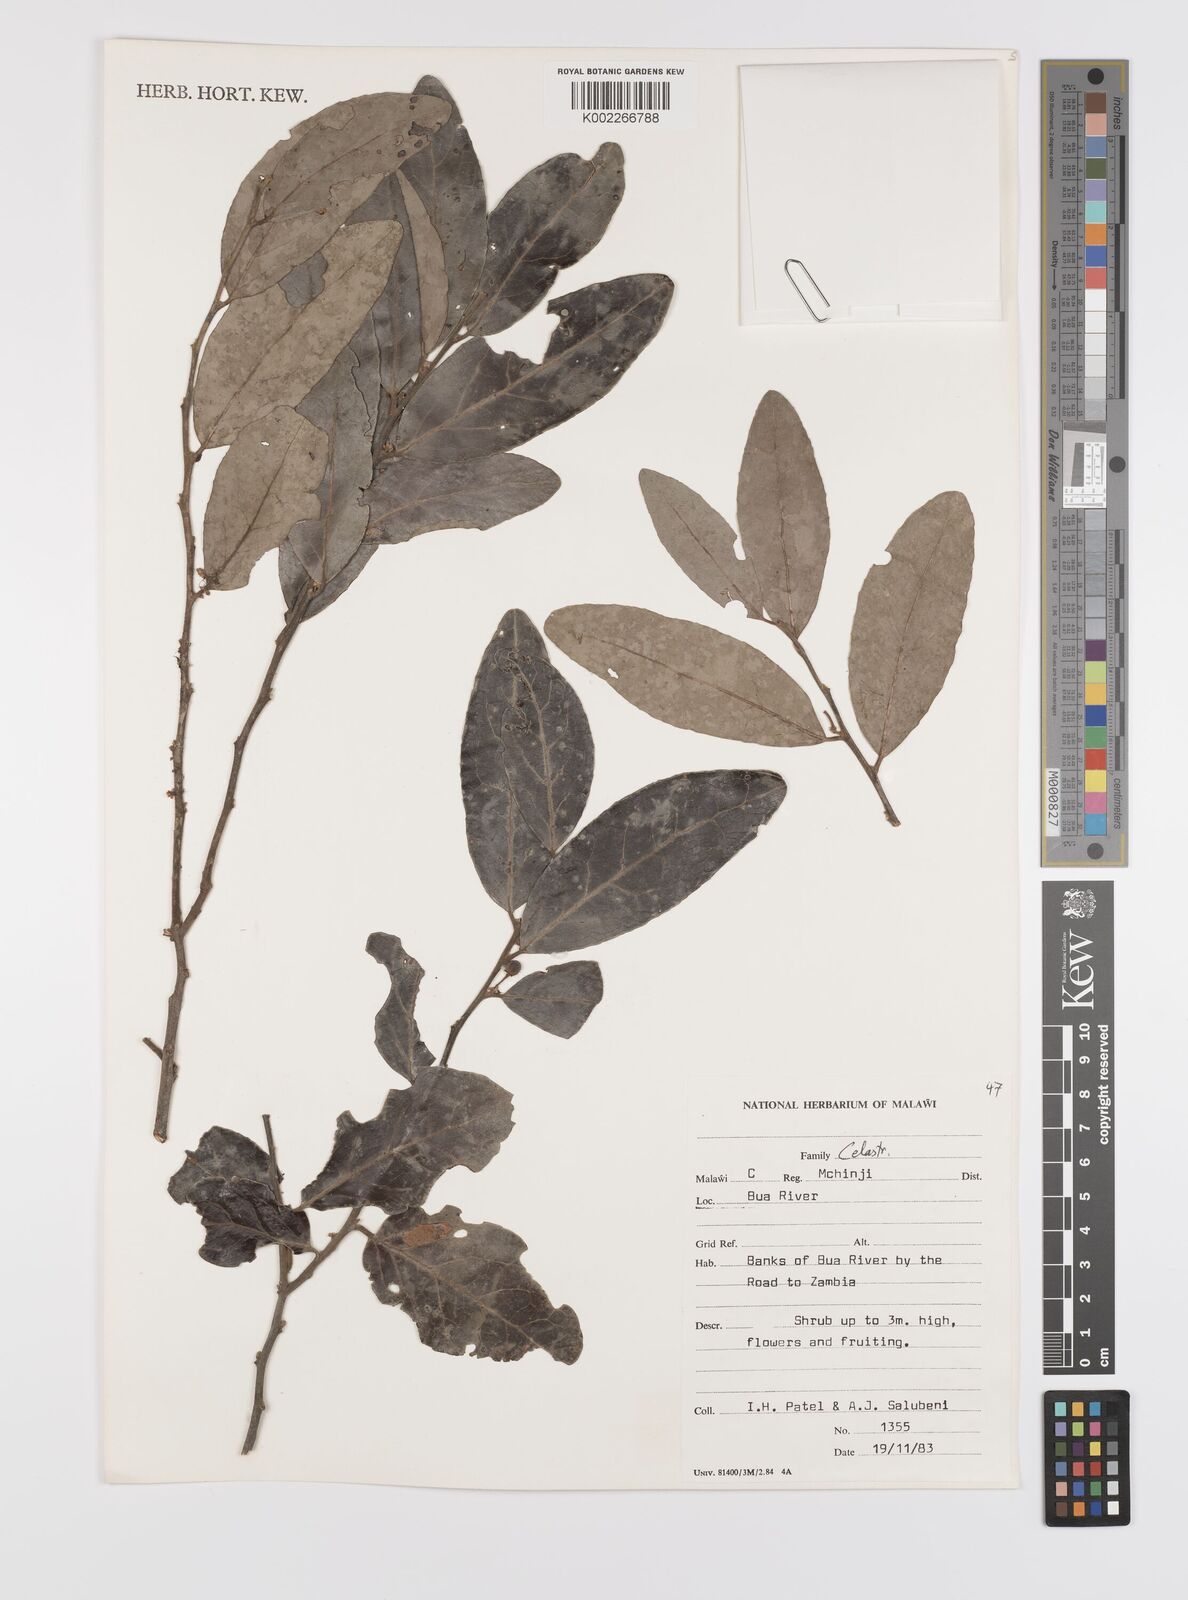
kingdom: Plantae
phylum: Tracheophyta
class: Magnoliopsida
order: Celastrales
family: Celastraceae
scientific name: Celastraceae
